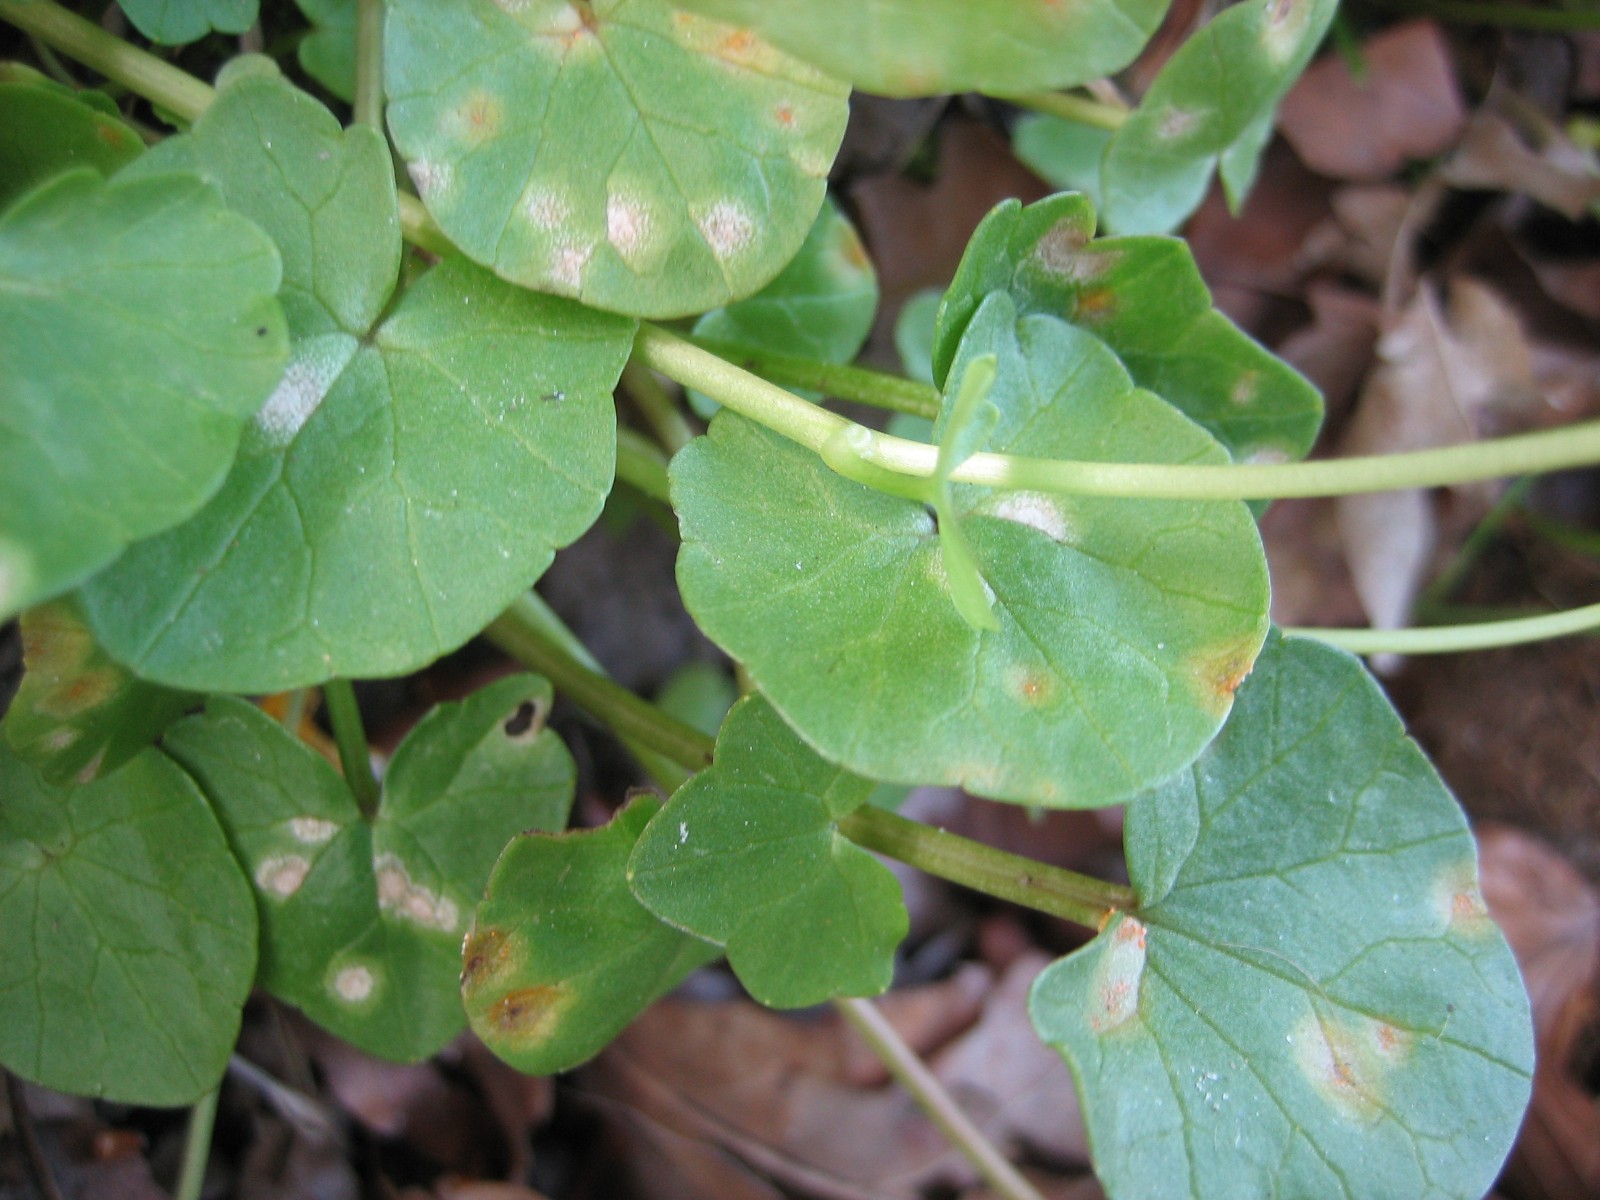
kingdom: Fungi
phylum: Basidiomycota
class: Pucciniomycetes
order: Pucciniales
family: Pucciniaceae
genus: Uromyces
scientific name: Uromyces dactylidis
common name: ranunkel-encellerust
